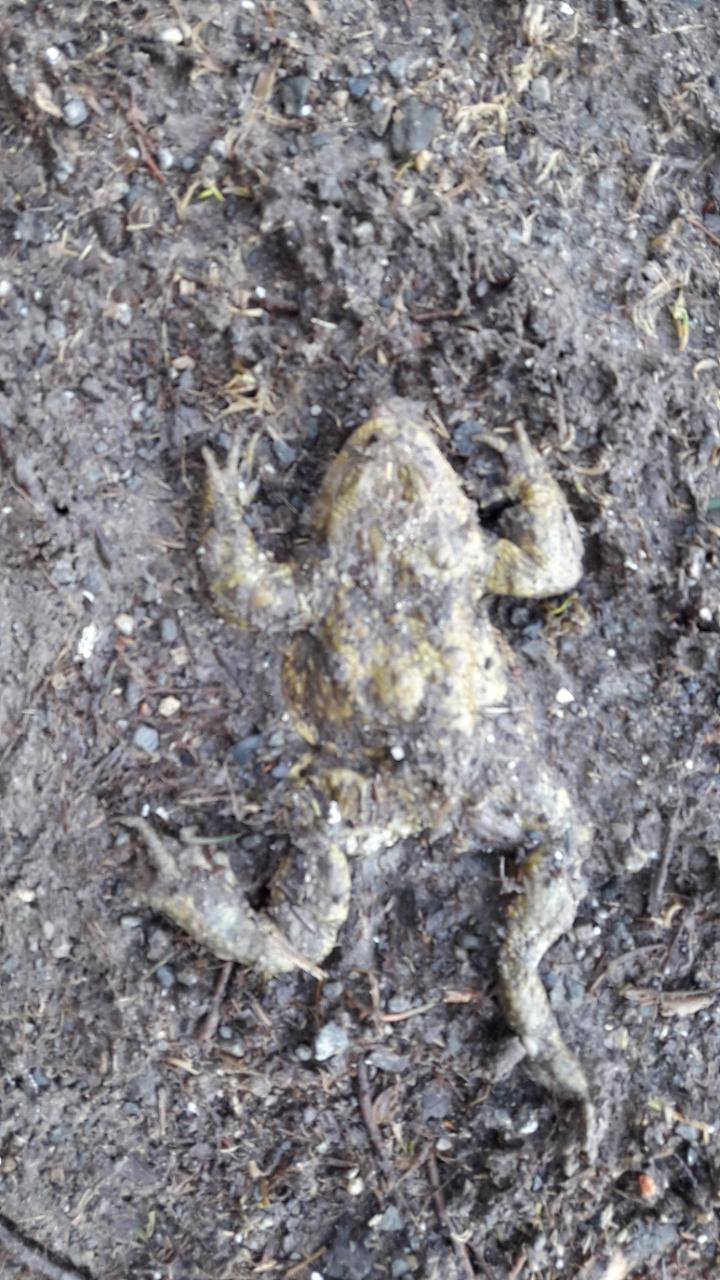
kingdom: Animalia
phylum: Chordata
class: Amphibia
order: Anura
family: Bufonidae
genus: Bufo
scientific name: Bufo bufo
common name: Common toad
